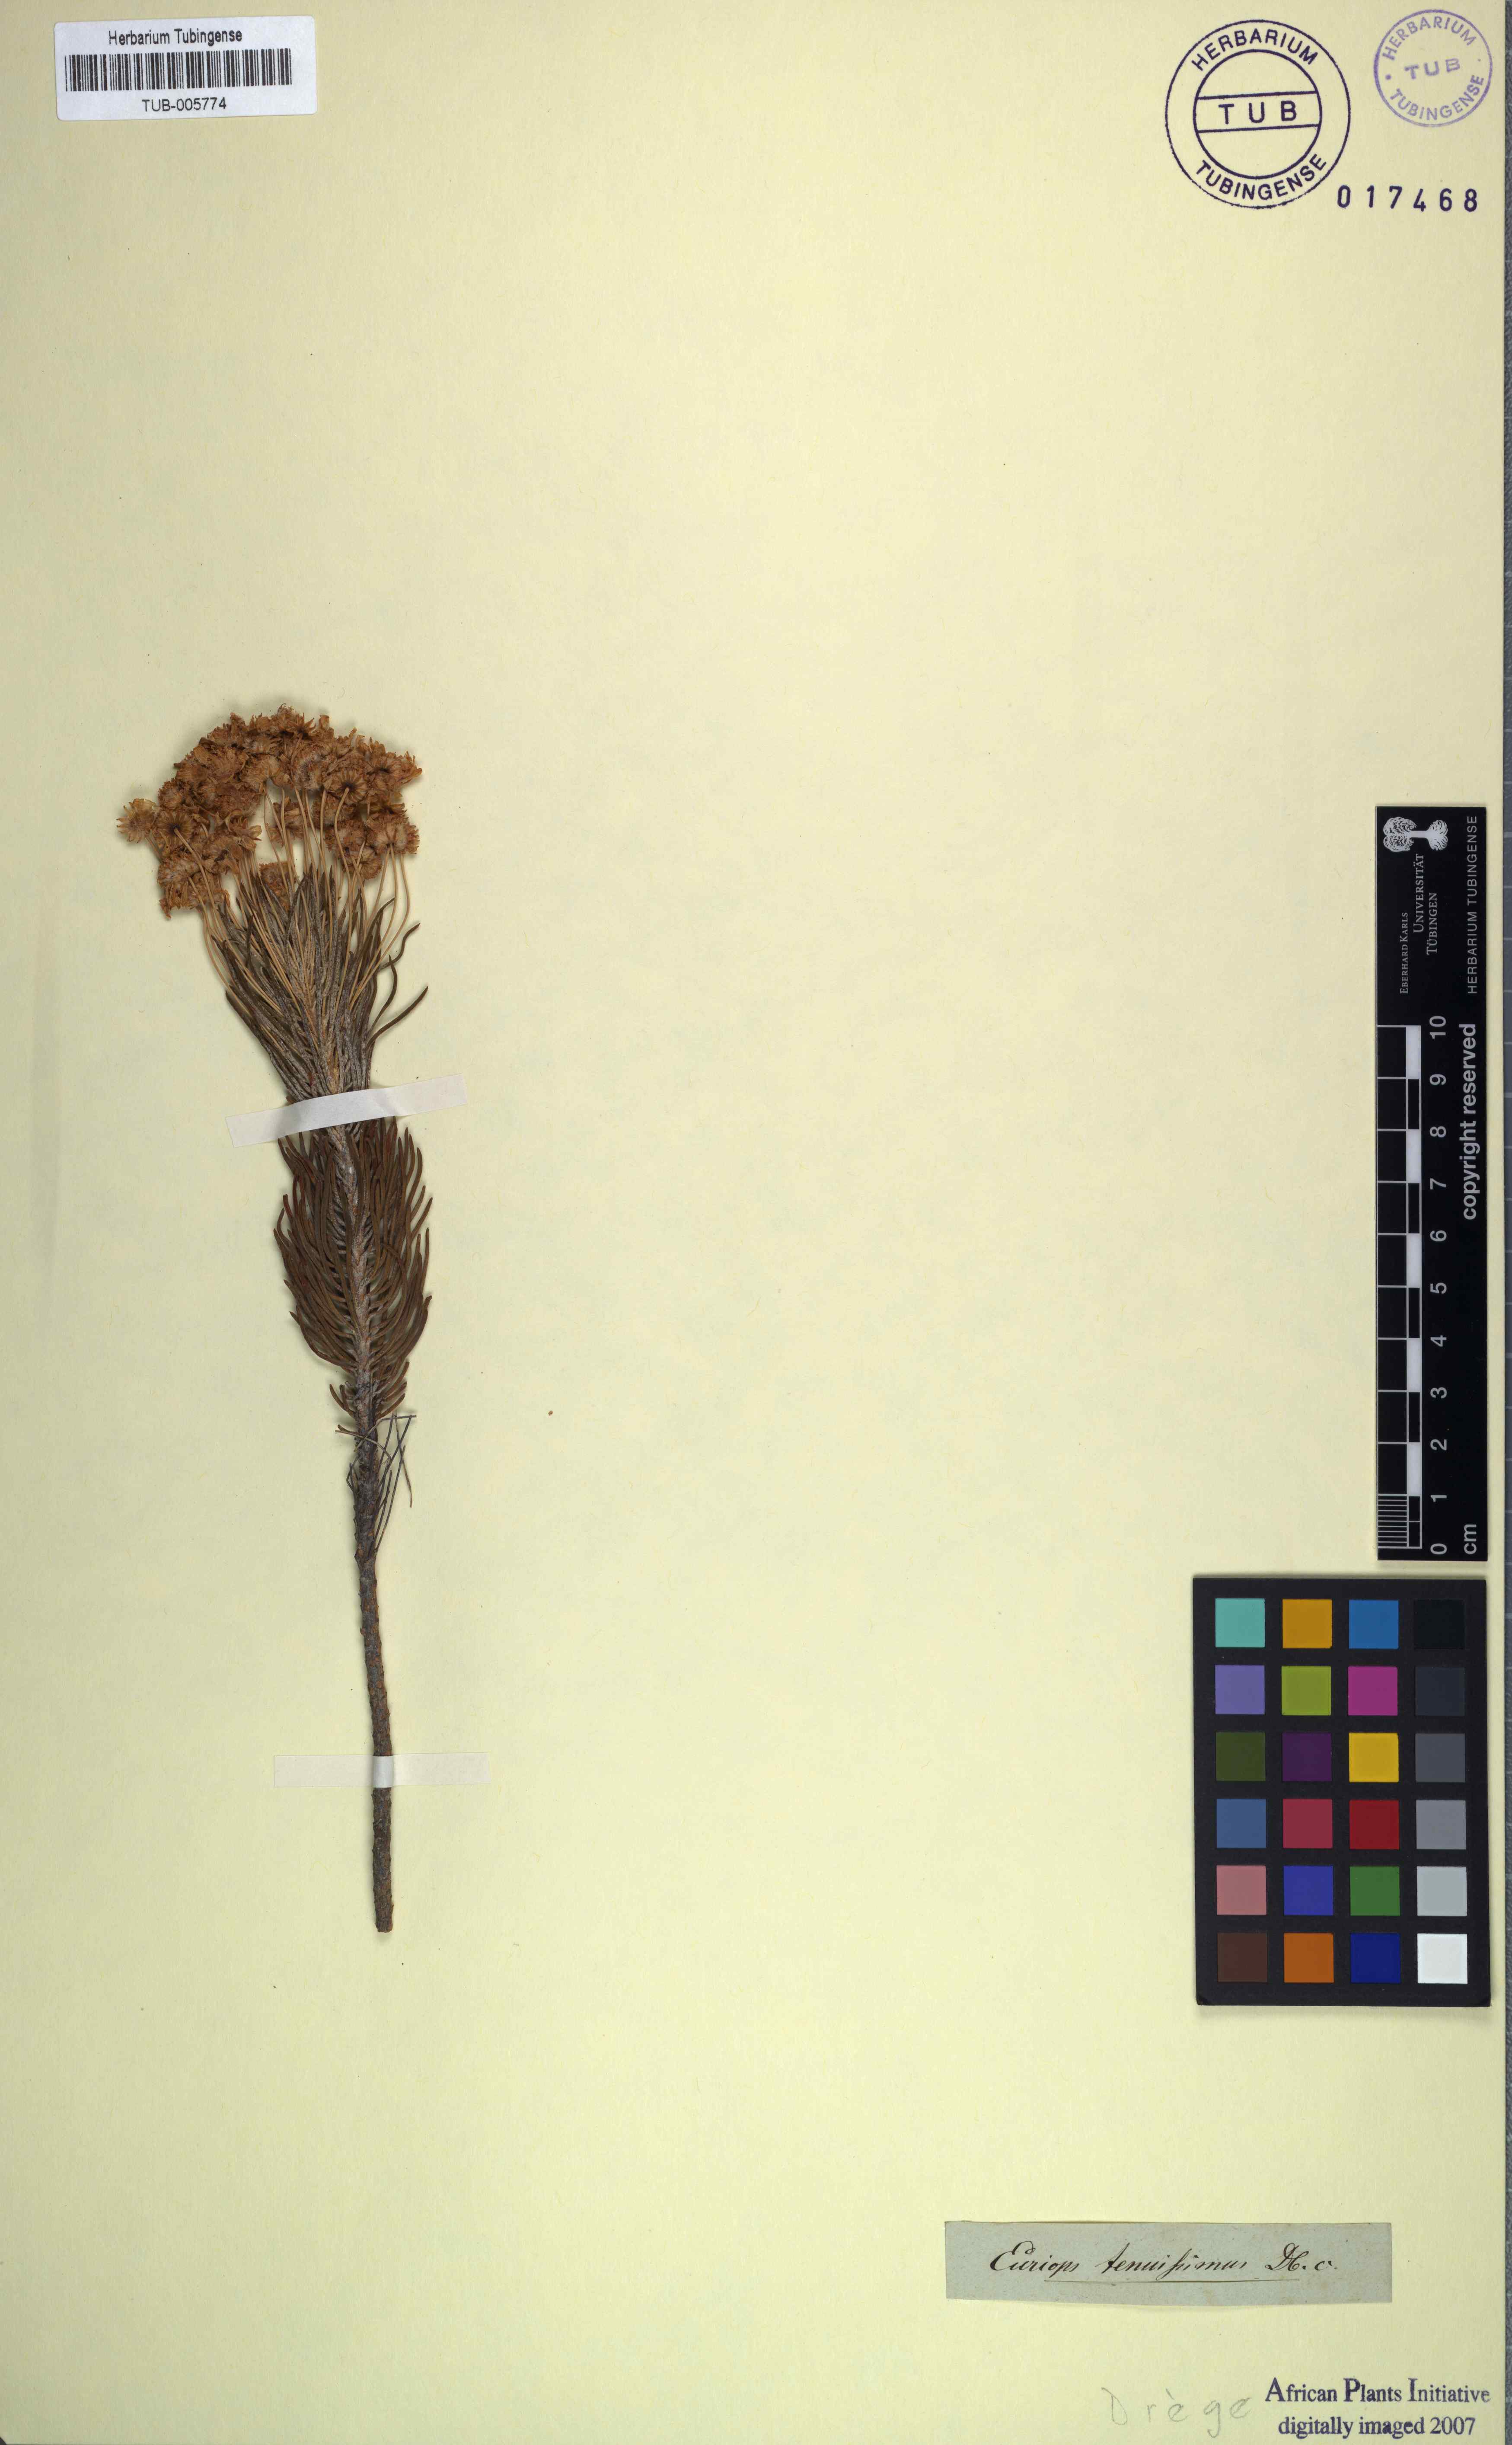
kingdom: Plantae
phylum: Tracheophyta
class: Magnoliopsida
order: Asterales
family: Asteraceae
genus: Euryops
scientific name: Euryops tenuissimus
